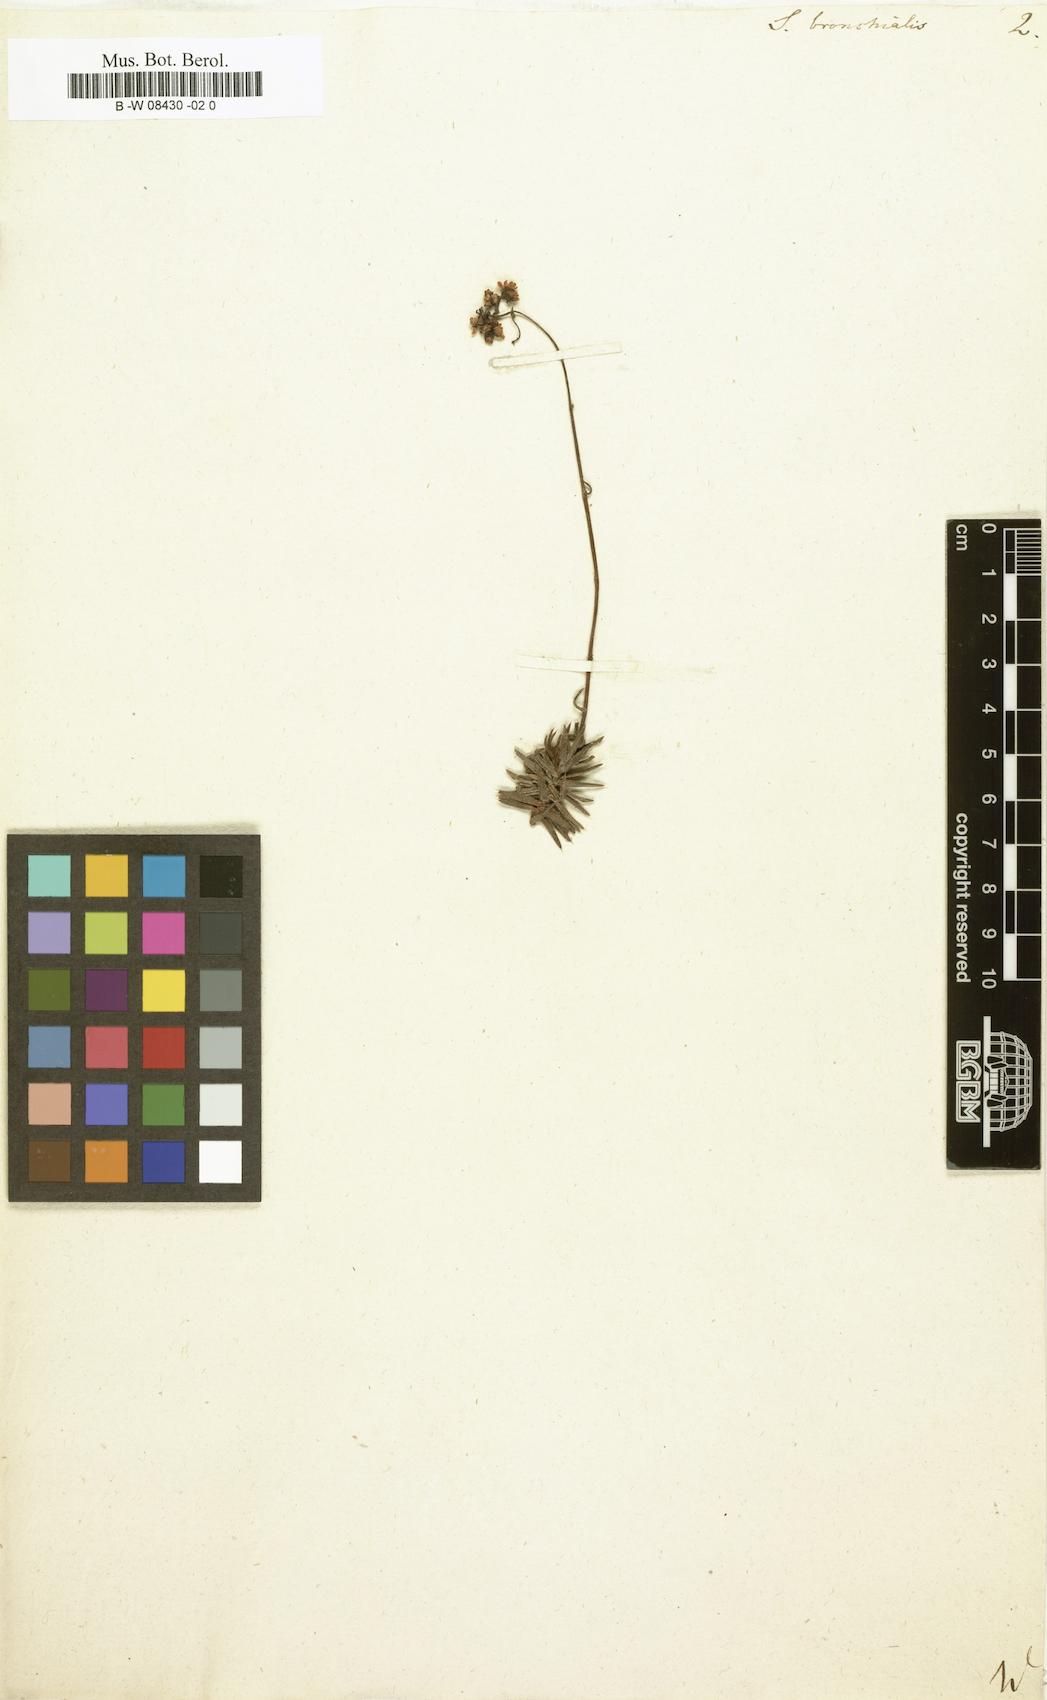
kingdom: Plantae
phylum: Tracheophyta
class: Magnoliopsida
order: Saxifragales
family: Saxifragaceae
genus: Saxifraga
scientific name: Saxifraga bronchialis
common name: Matted saxifrage
